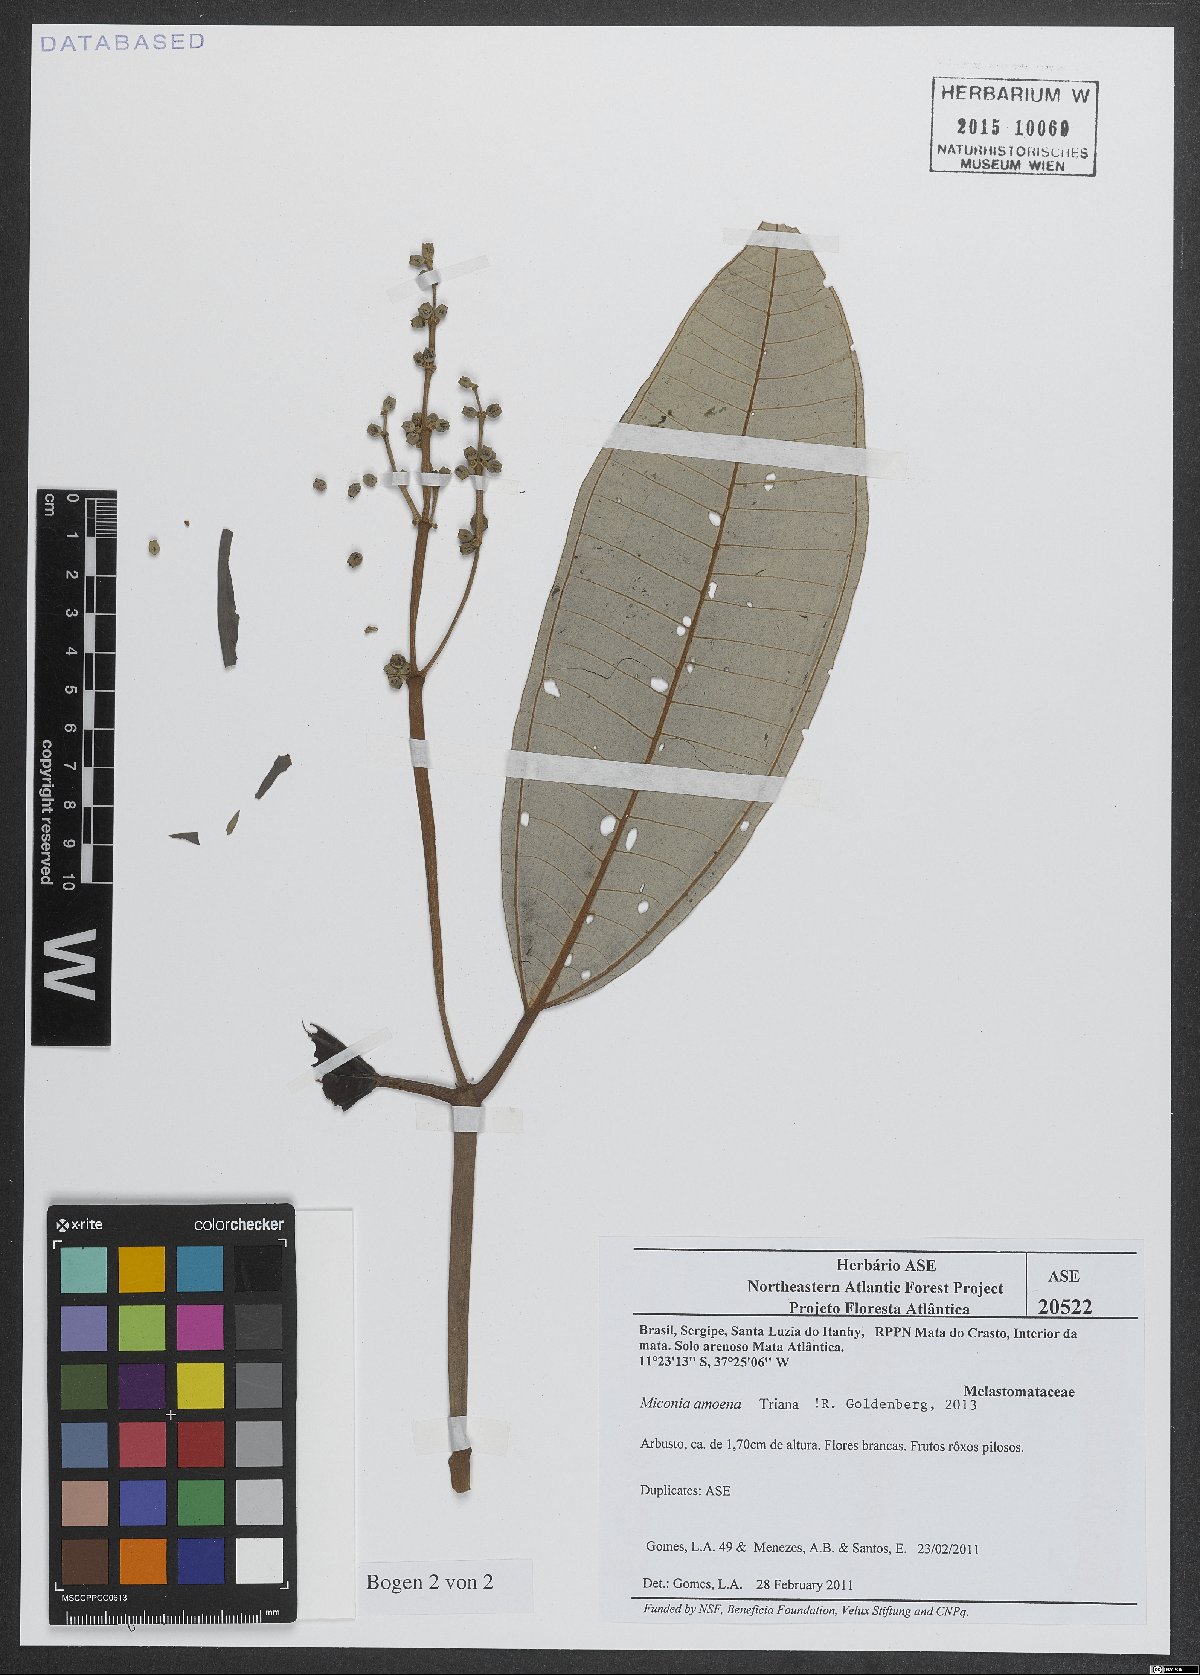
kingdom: Plantae
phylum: Tracheophyta
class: Magnoliopsida
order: Myrtales
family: Melastomataceae
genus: Miconia
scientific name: Miconia amoena
